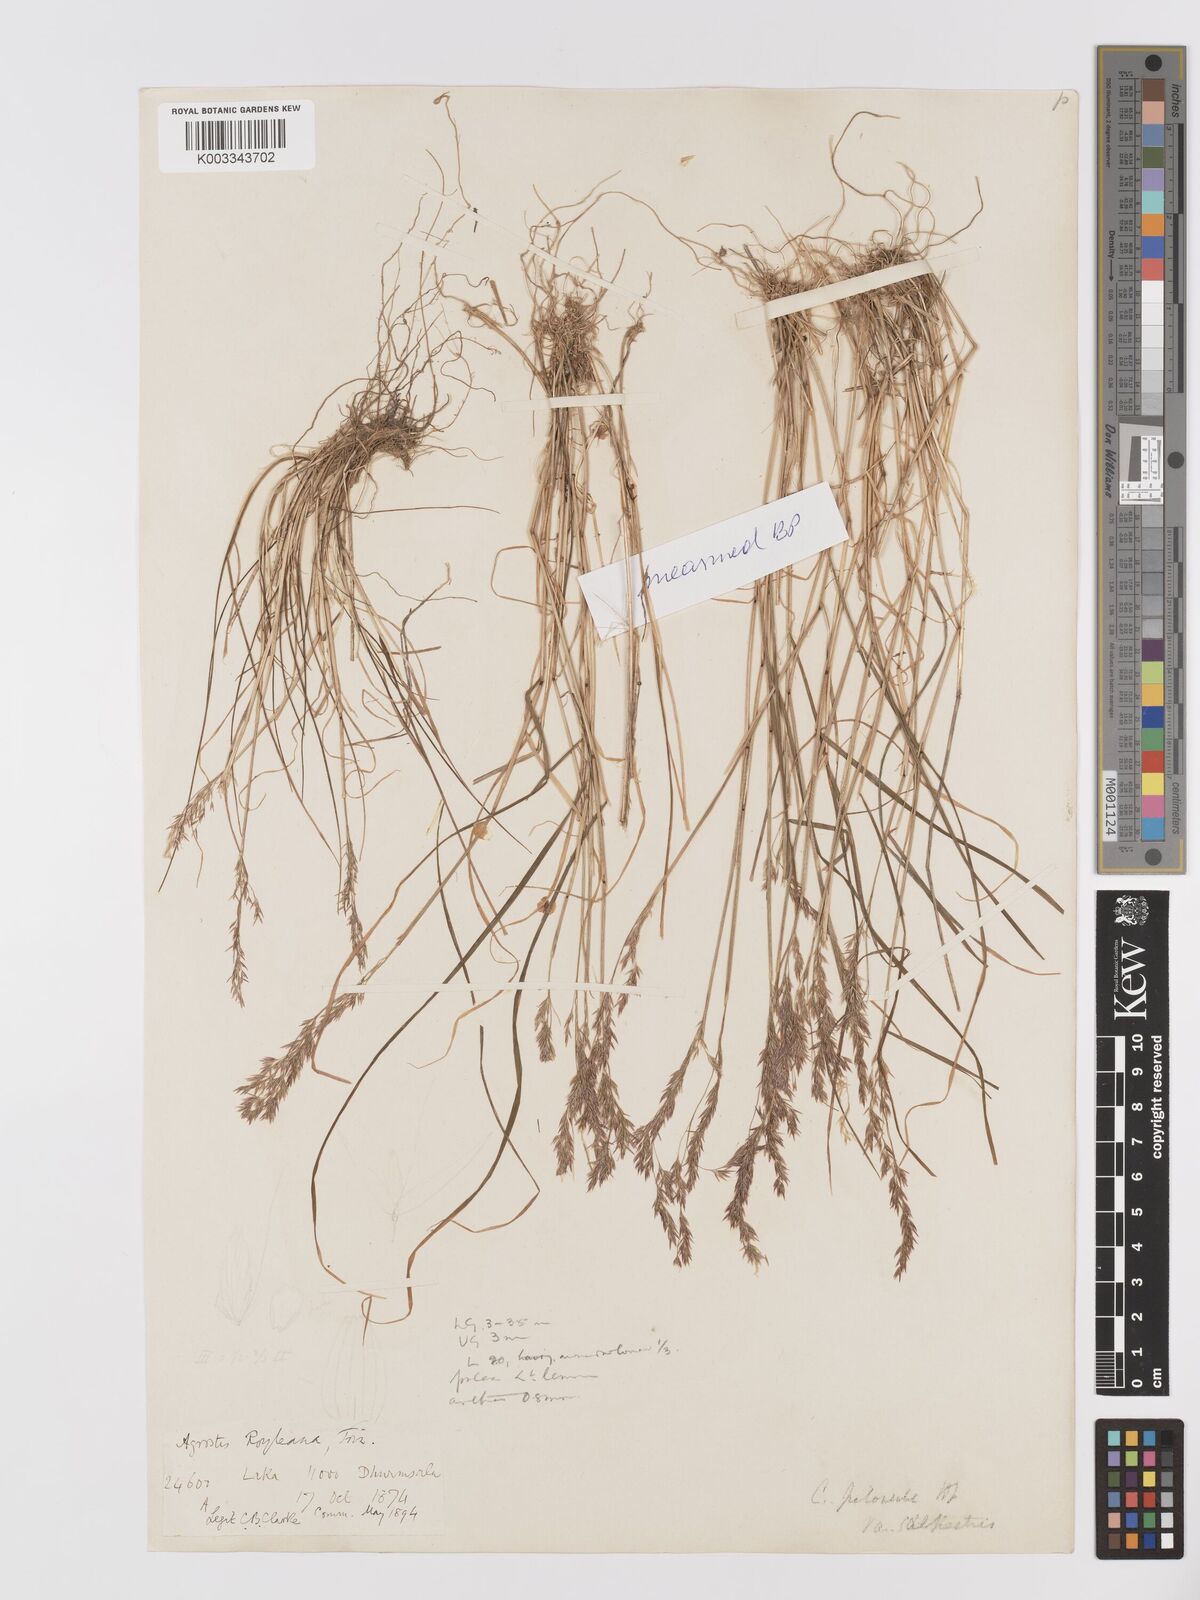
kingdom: Plantae
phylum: Tracheophyta
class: Liliopsida
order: Poales
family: Poaceae
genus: Agrostis
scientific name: Agrostis pilosula
